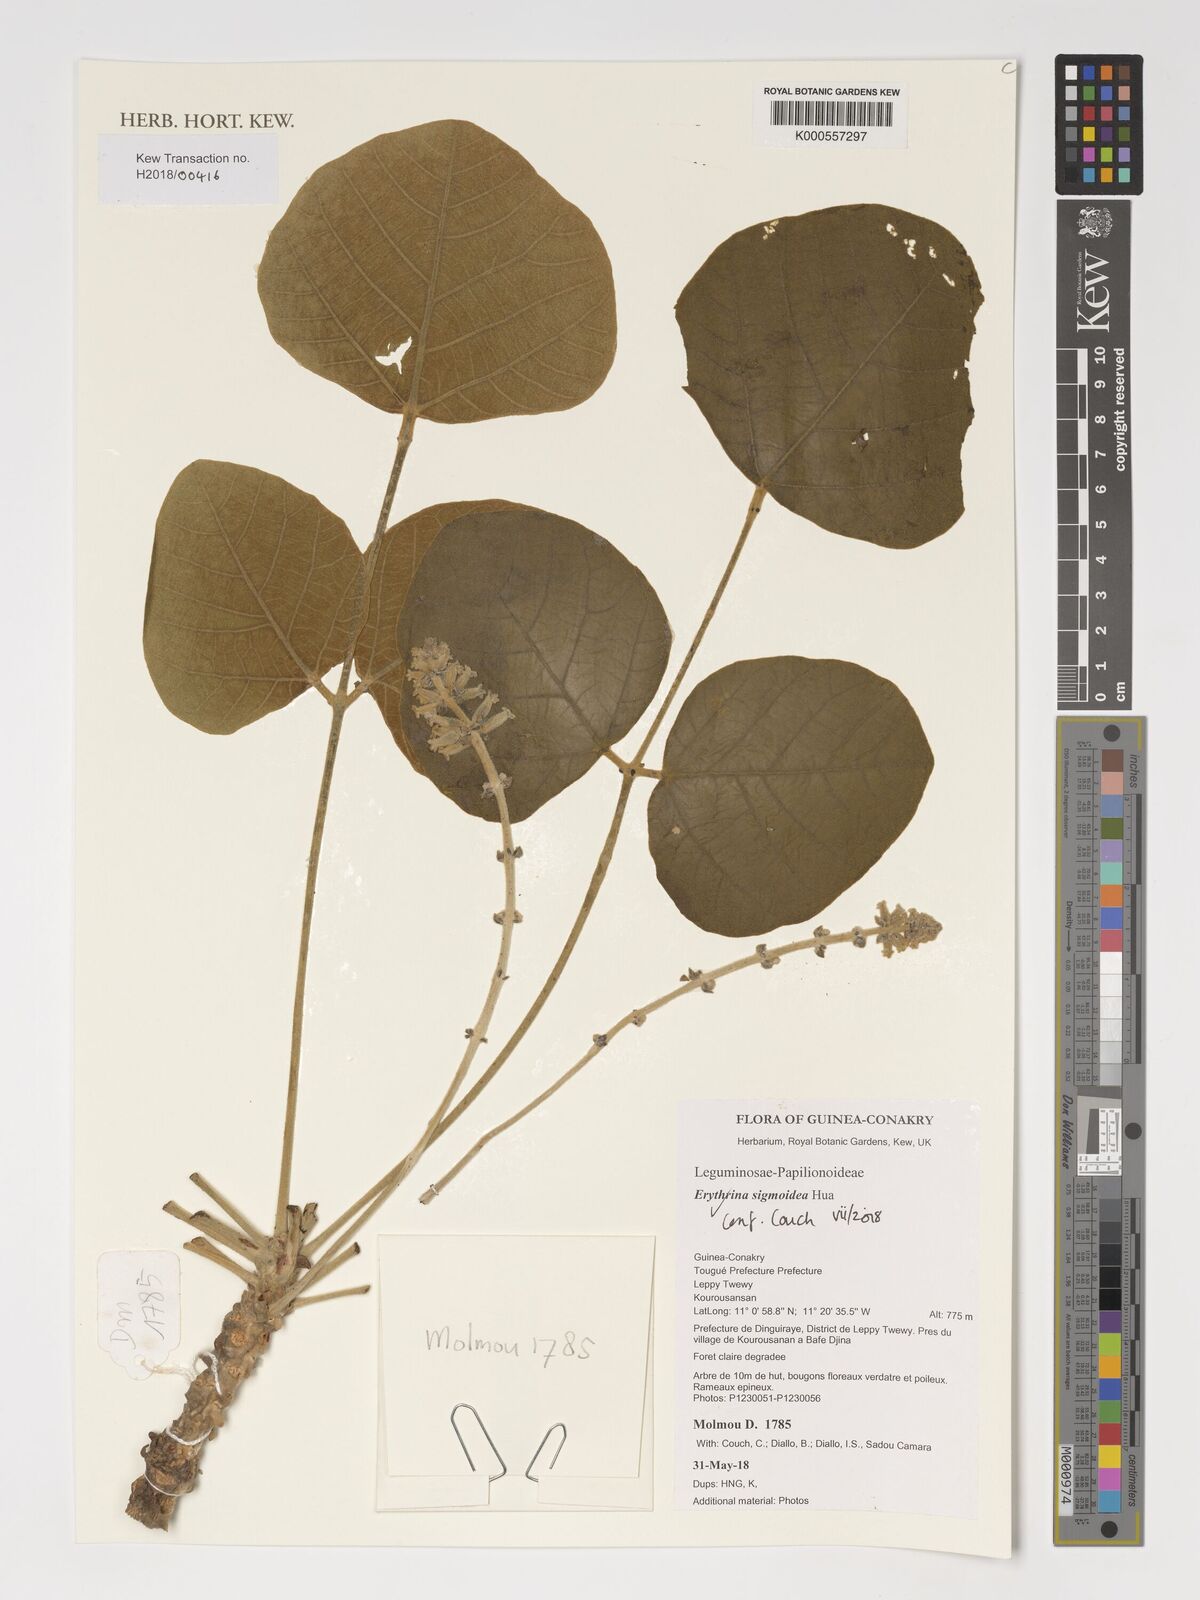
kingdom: Plantae
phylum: Tracheophyta
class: Magnoliopsida
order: Fabales
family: Fabaceae
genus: Erythrina
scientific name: Erythrina sigmoidea
